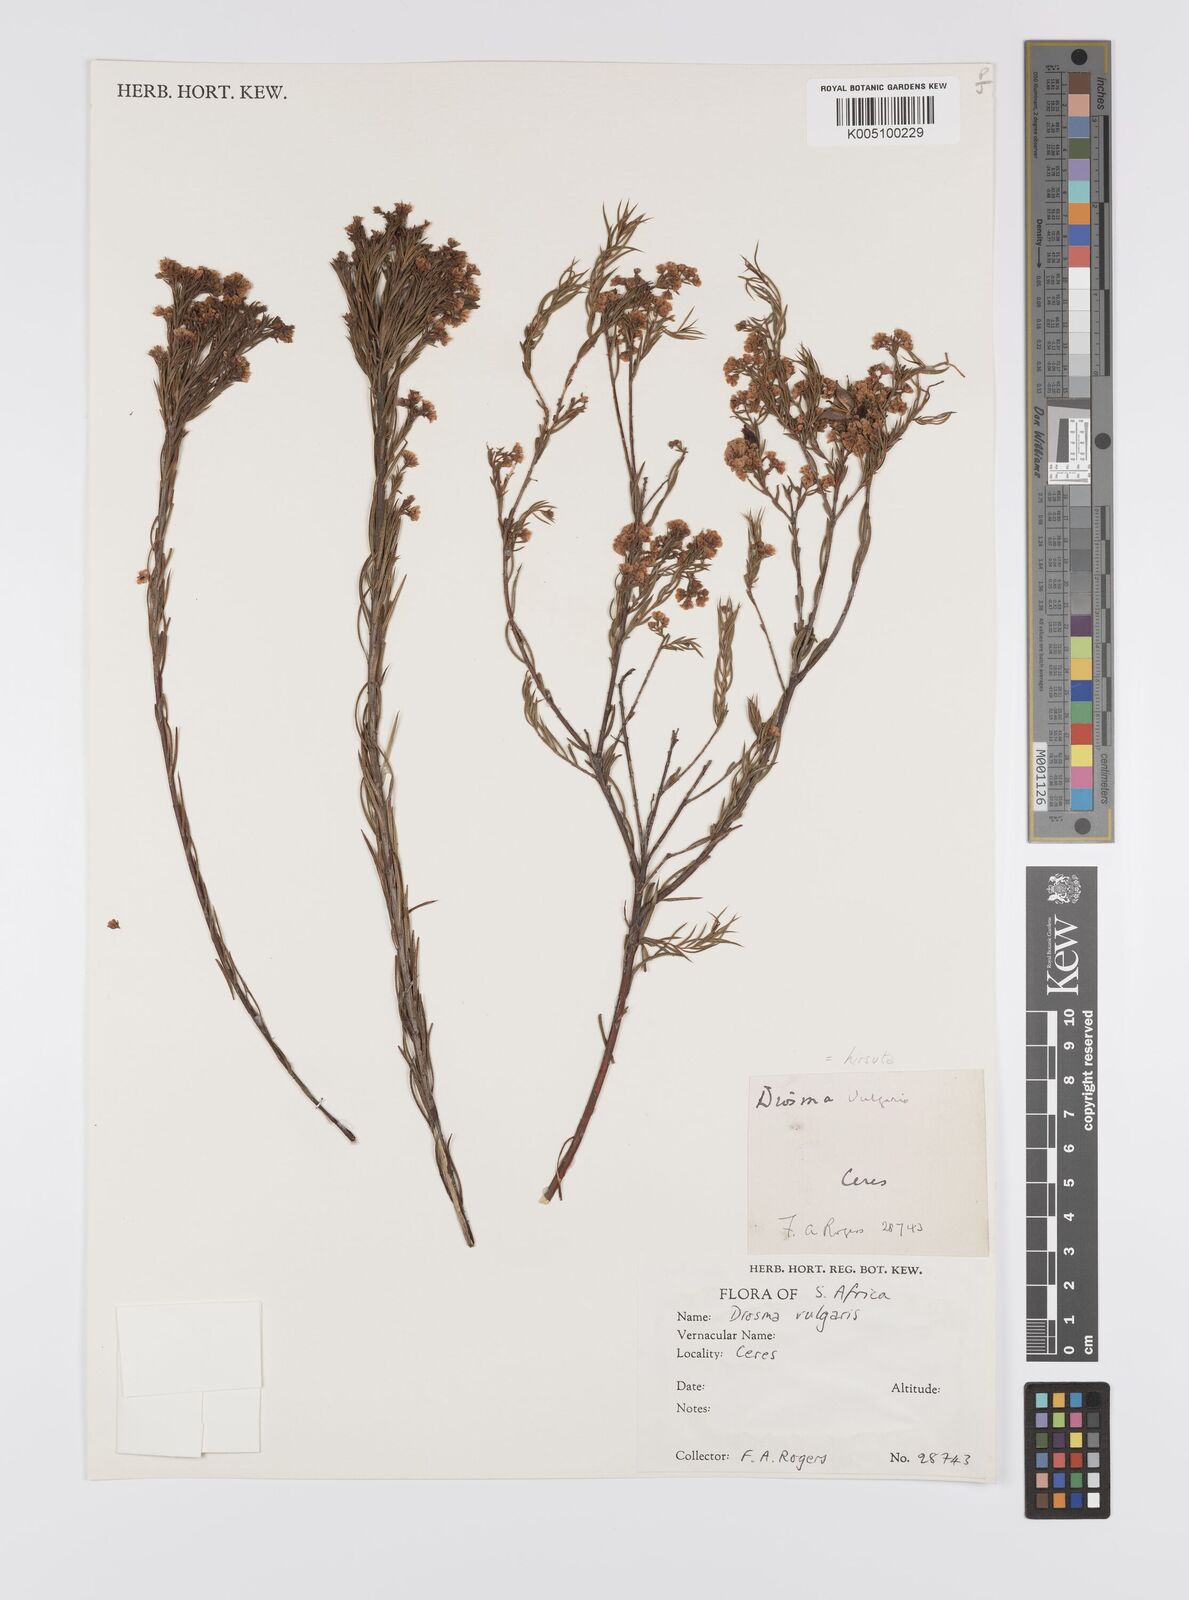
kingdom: Plantae
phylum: Tracheophyta
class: Magnoliopsida
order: Sapindales
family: Rutaceae
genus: Diosma
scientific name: Diosma hirsuta
